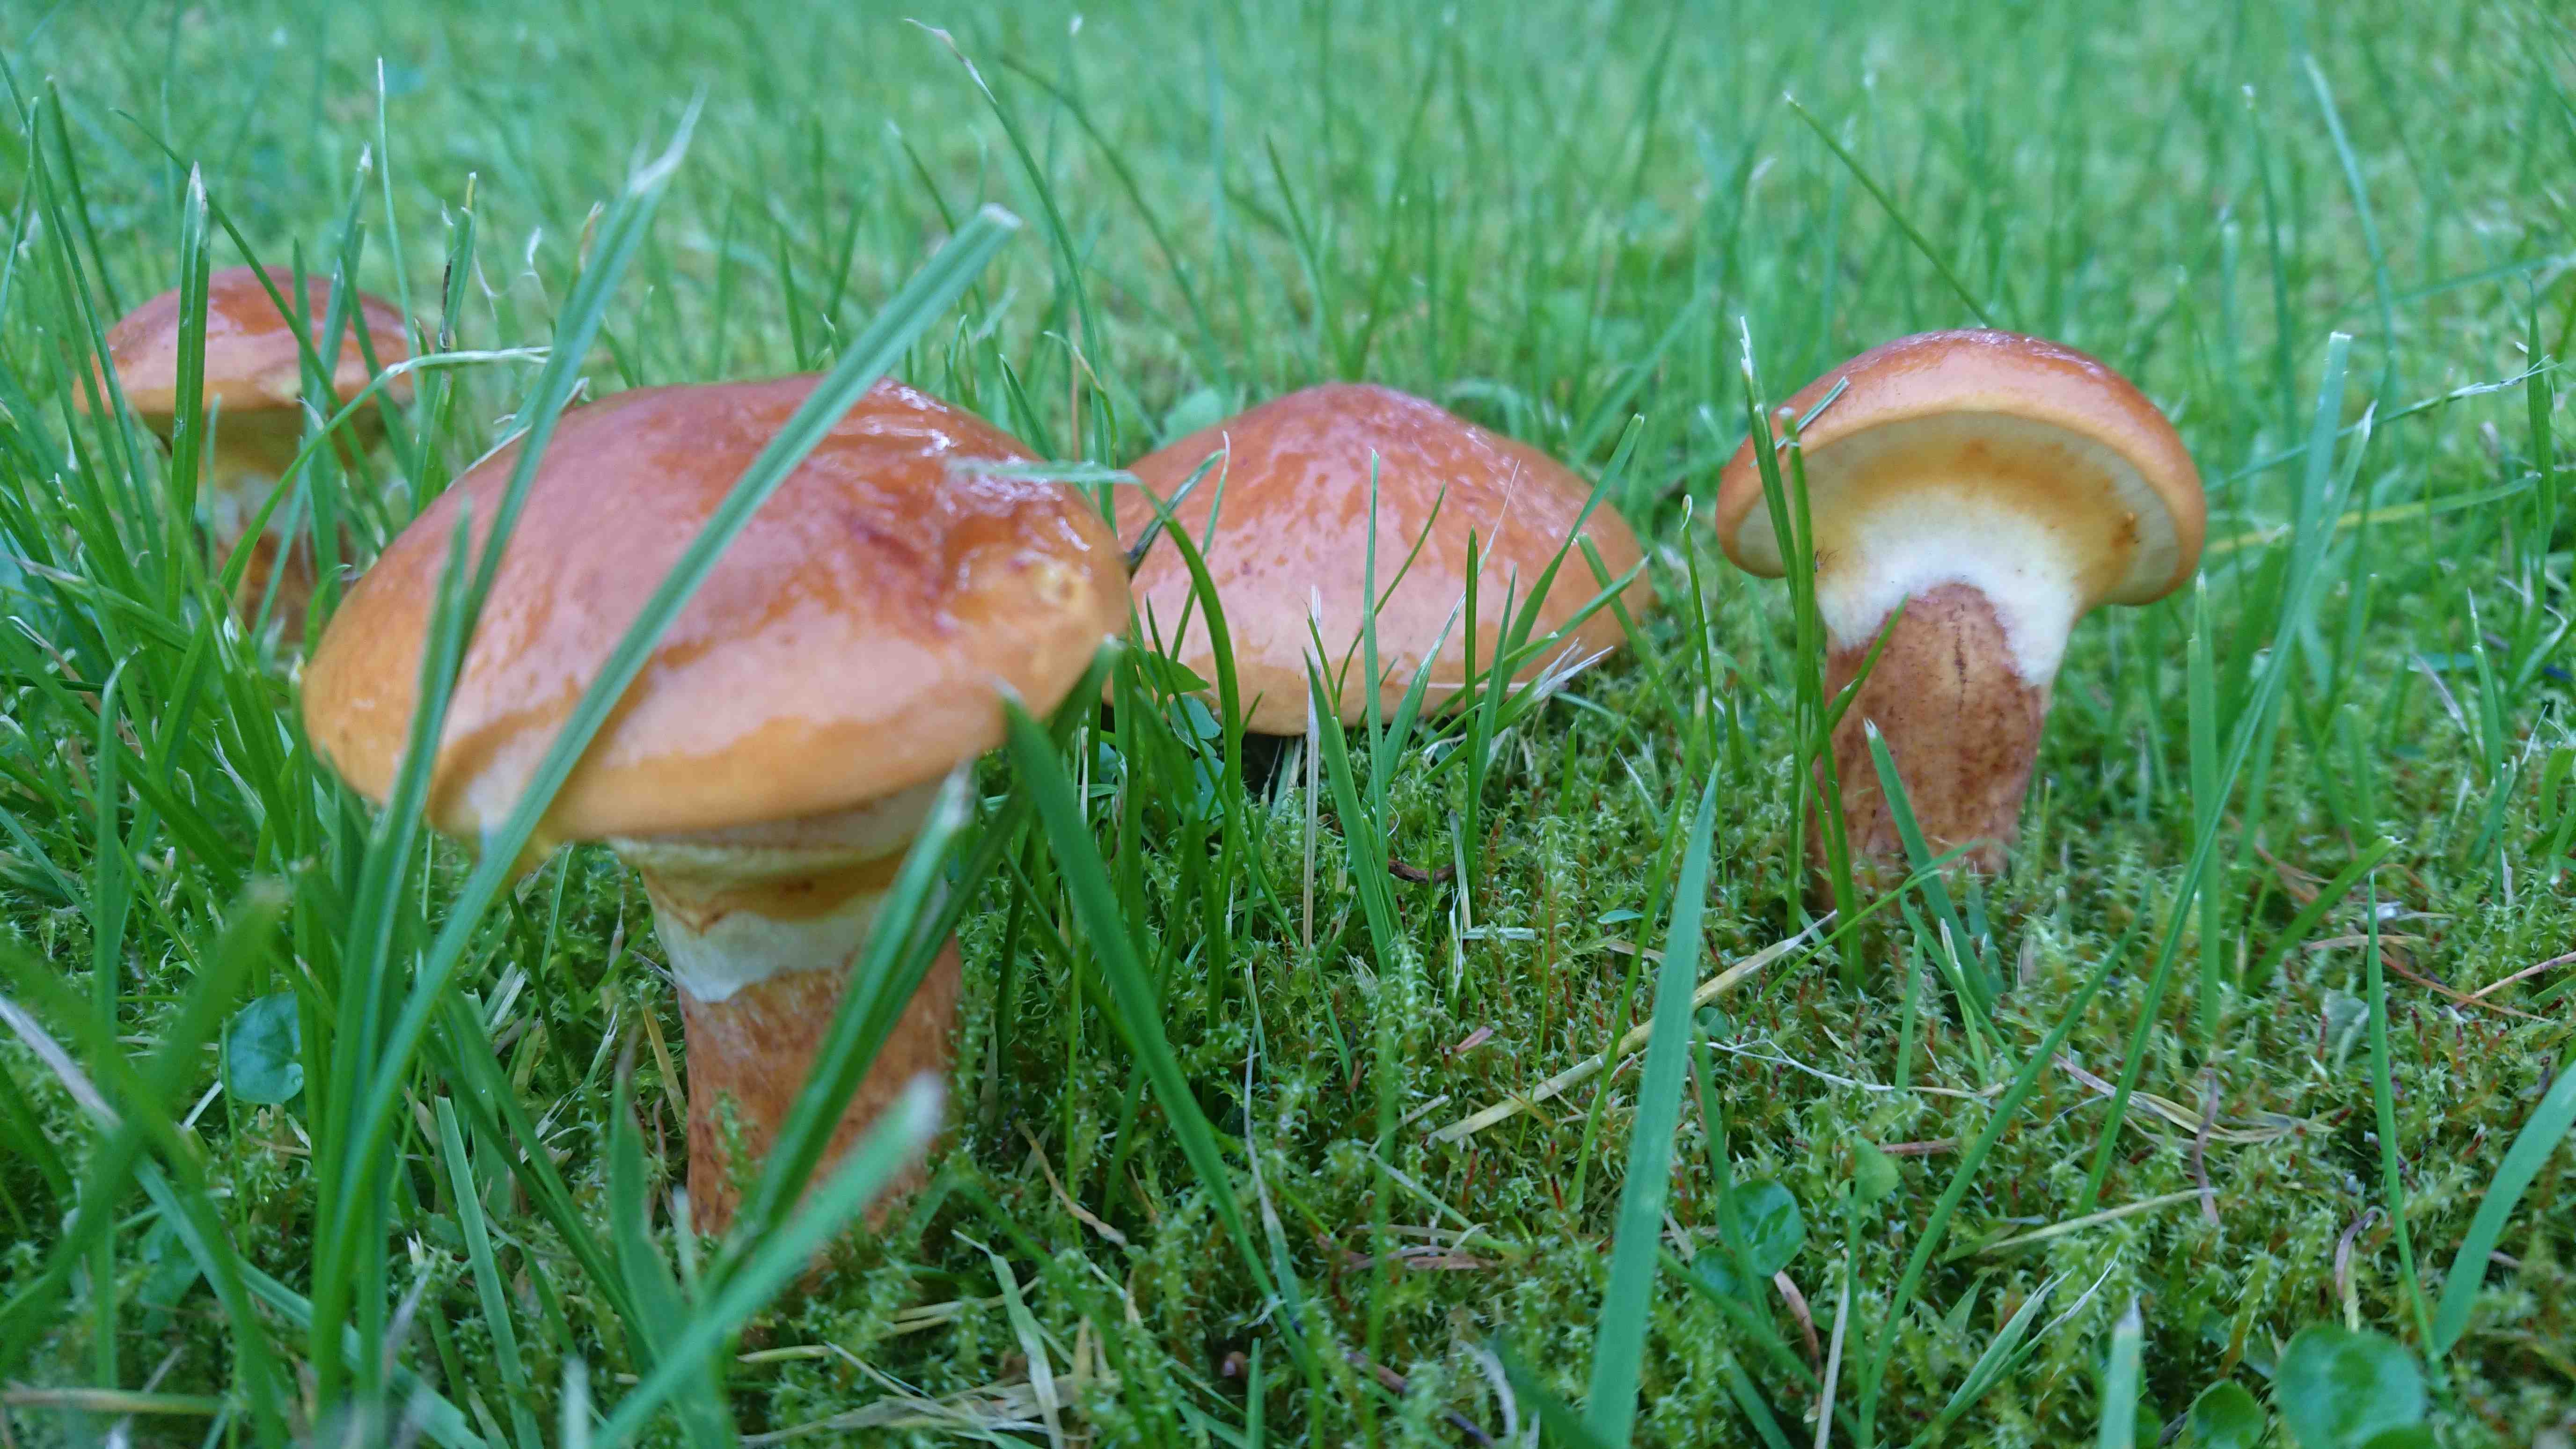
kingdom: Fungi
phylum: Basidiomycota
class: Agaricomycetes
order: Boletales
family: Suillaceae
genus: Suillus
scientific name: Suillus grevillei
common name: lærke-slimrørhat
